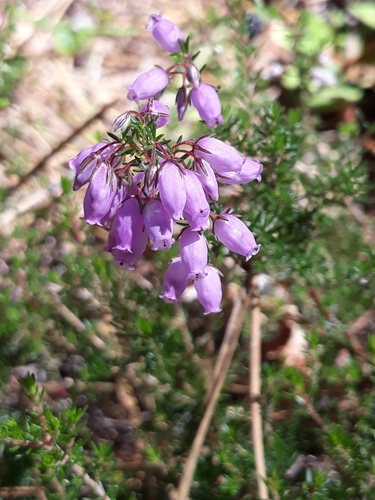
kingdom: Plantae
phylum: Tracheophyta
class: Magnoliopsida
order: Ericales
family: Ericaceae
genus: Erica
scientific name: Erica cinerea
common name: Bell heather
